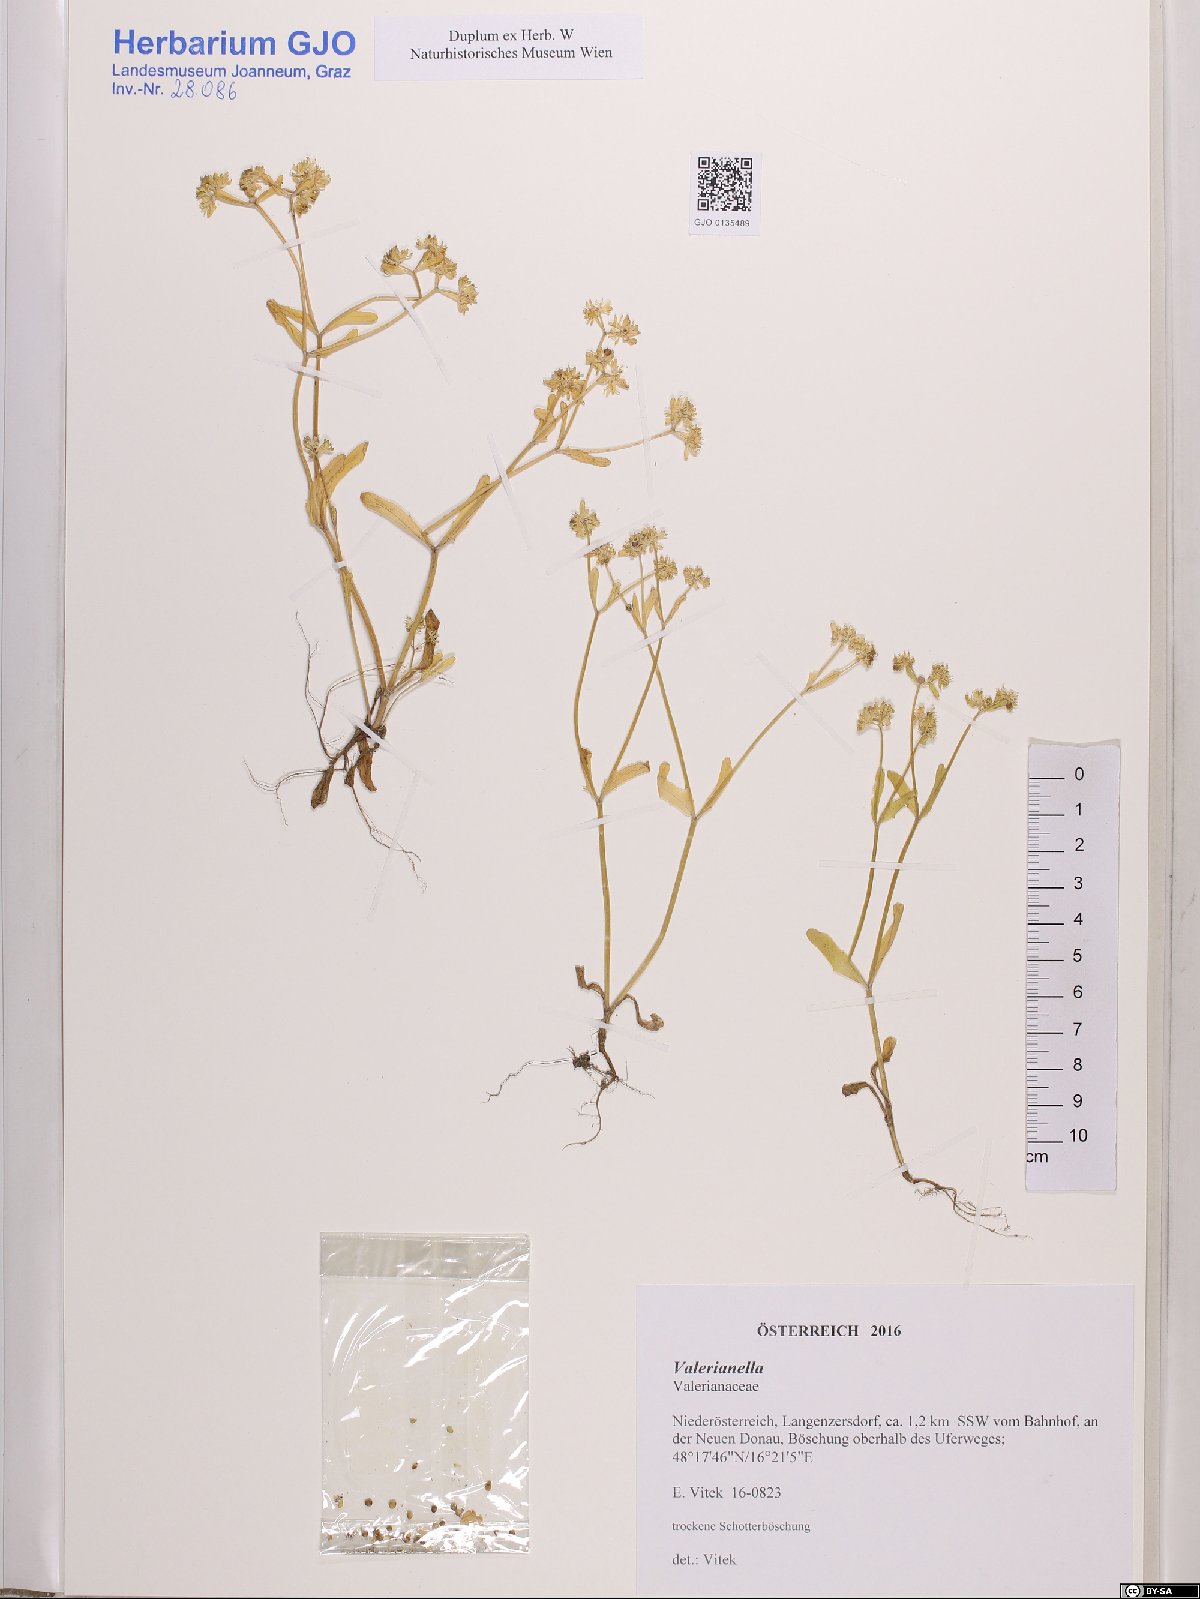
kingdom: Plantae
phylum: Tracheophyta
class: Magnoliopsida
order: Dipsacales
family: Caprifoliaceae
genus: Valerianella
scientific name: Valerianella
